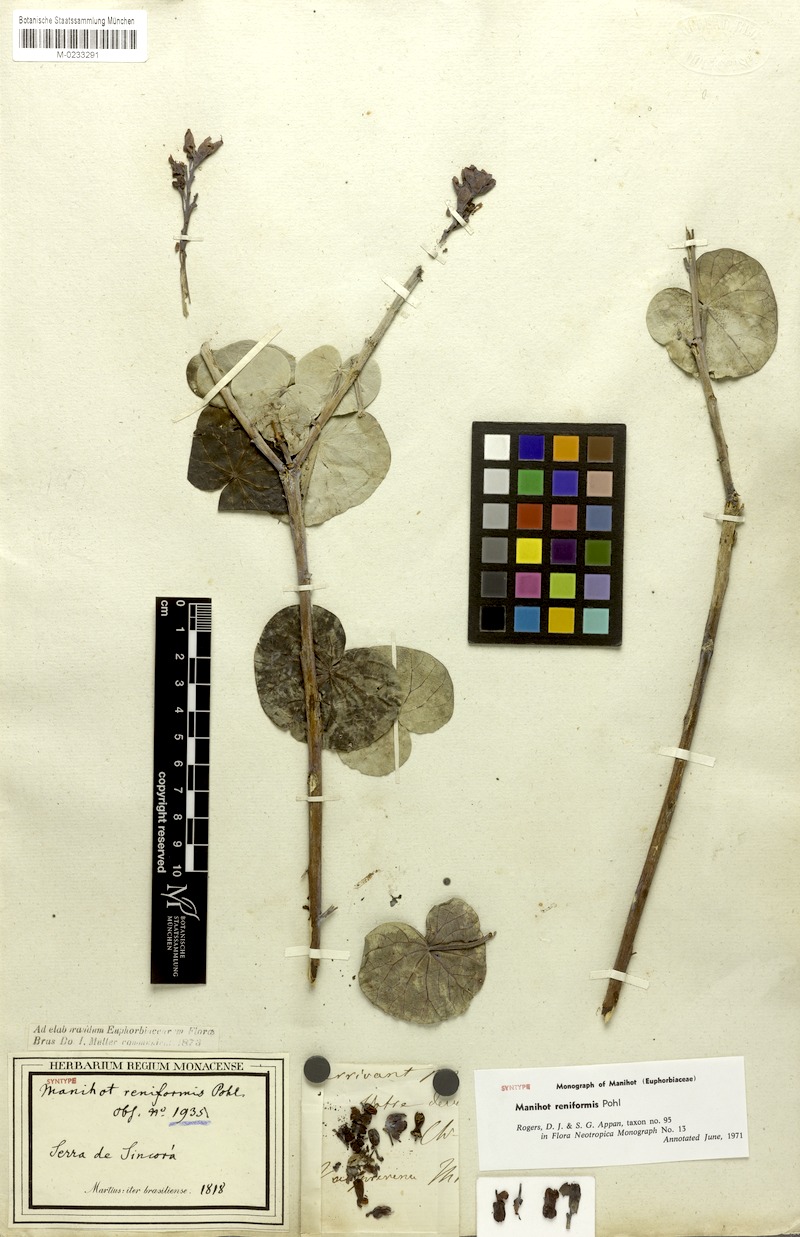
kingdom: Plantae
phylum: Tracheophyta
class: Magnoliopsida
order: Malpighiales
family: Euphorbiaceae
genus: Manihot
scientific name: Manihot reniformis
